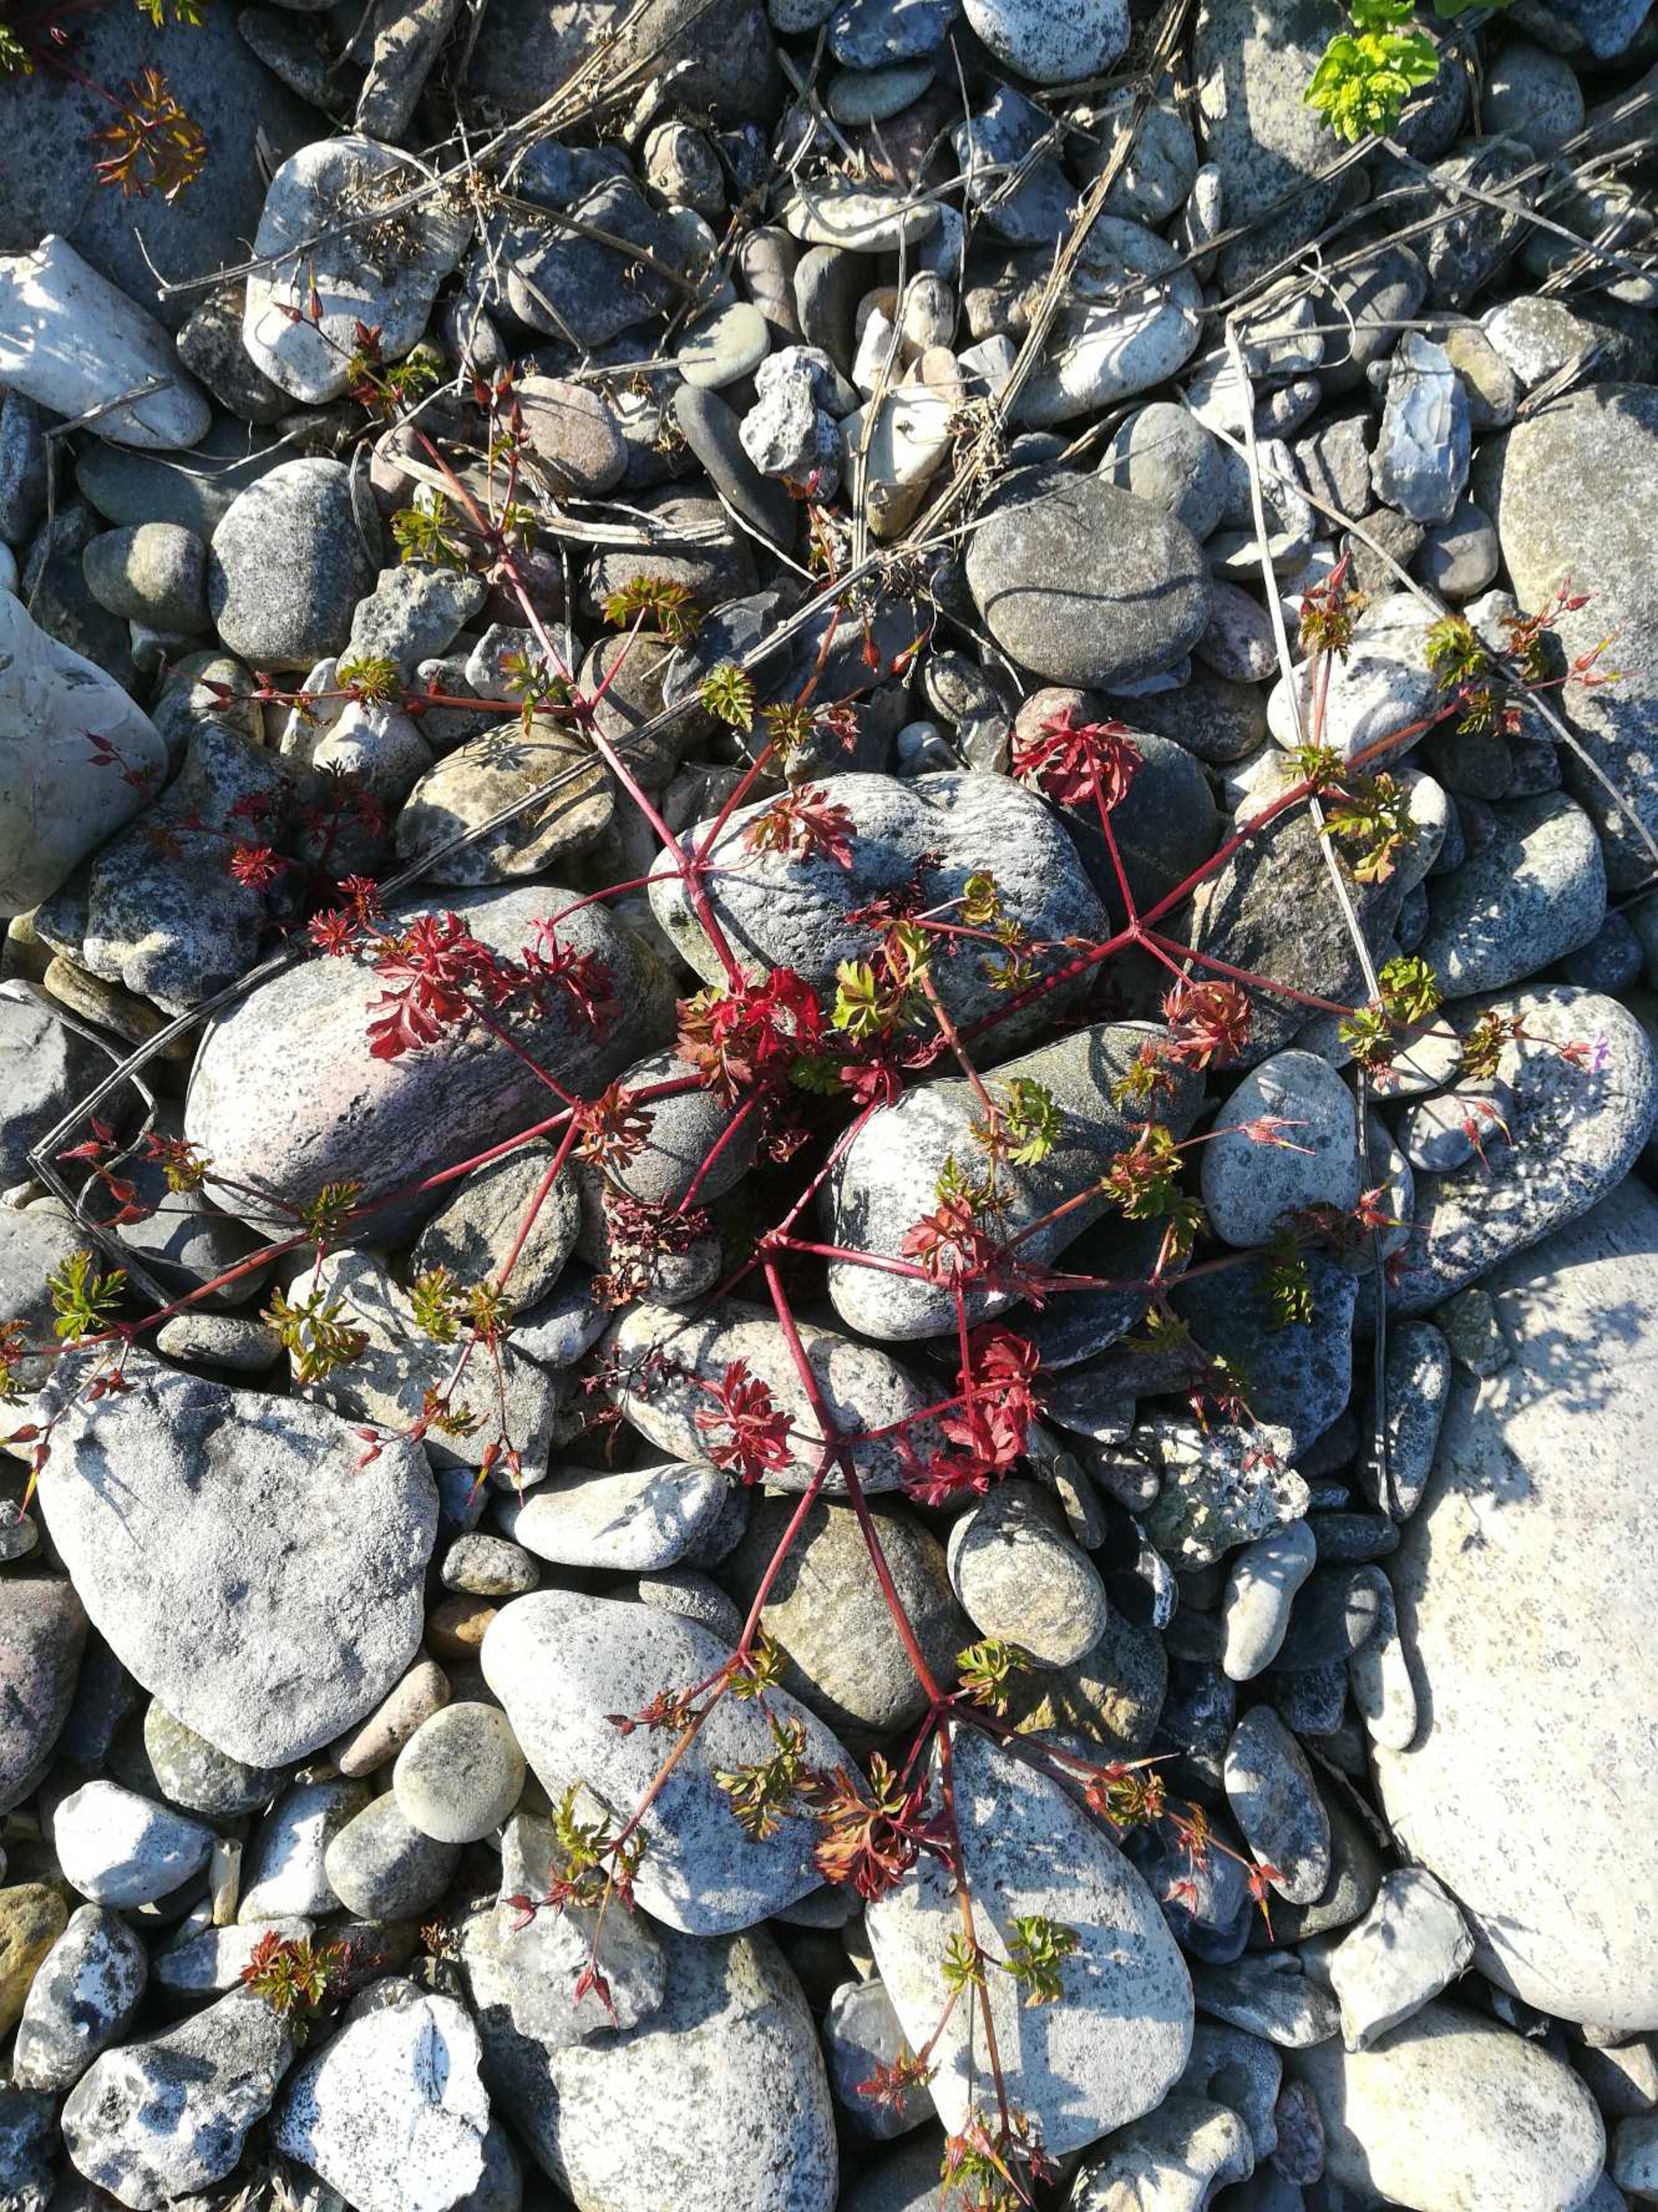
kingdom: Plantae
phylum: Tracheophyta
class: Magnoliopsida
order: Geraniales
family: Geraniaceae
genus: Geranium
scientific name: Geranium purpureum
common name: Strand-storkenæb
